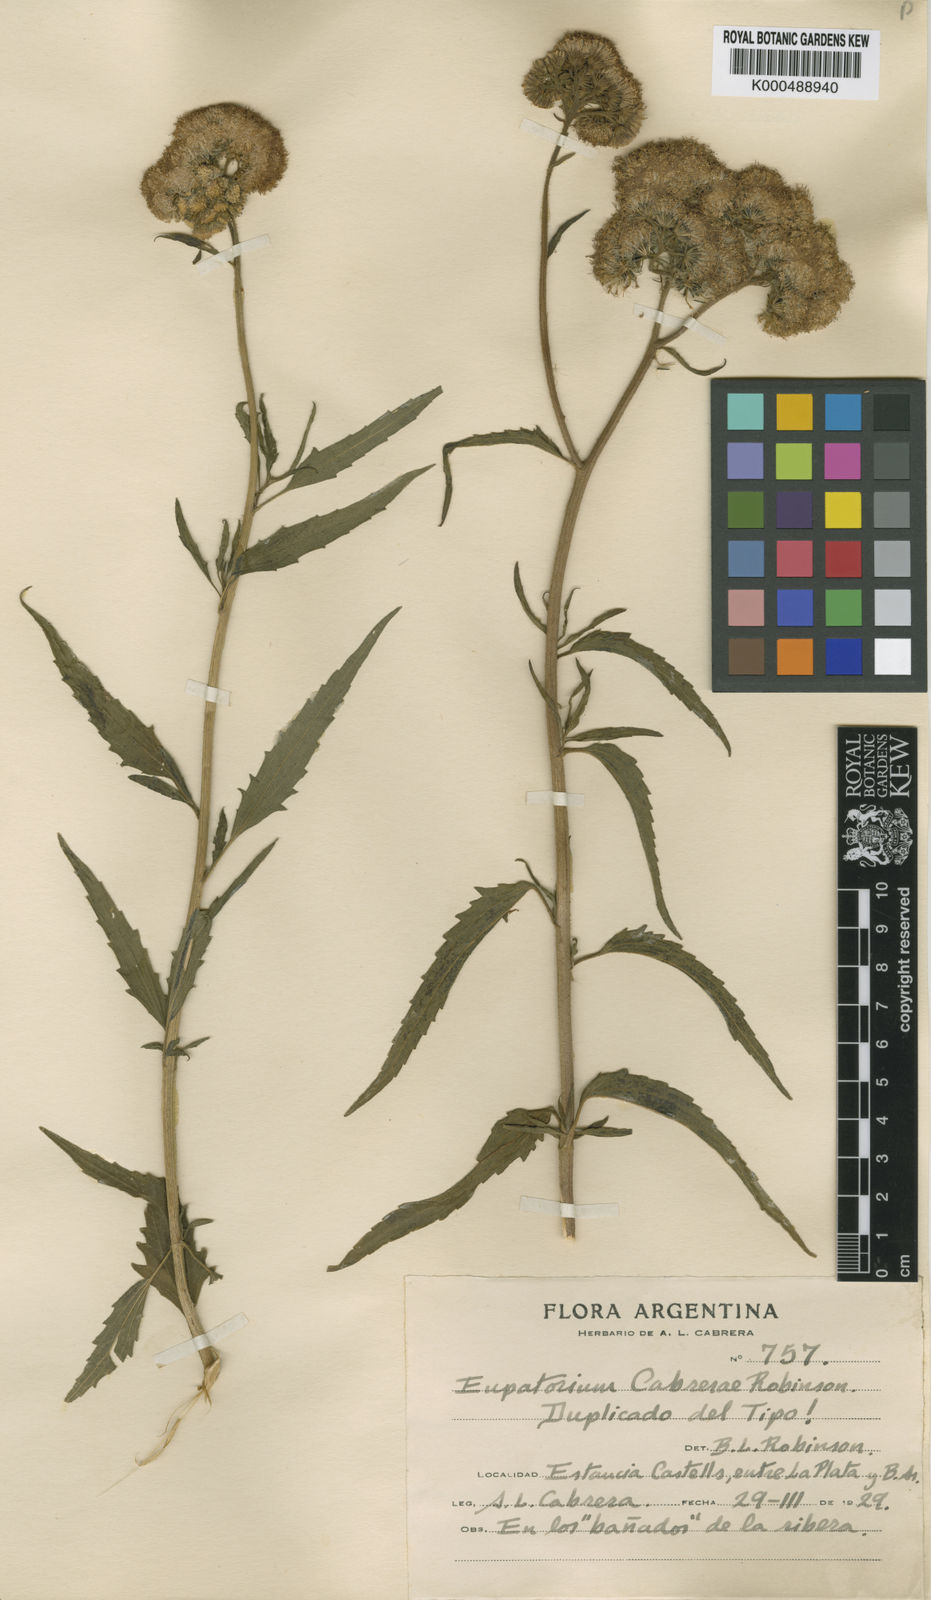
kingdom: Plantae
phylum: Tracheophyta
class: Magnoliopsida
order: Asterales
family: Asteraceae
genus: Barrosoa
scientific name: Barrosoa cabrerae
